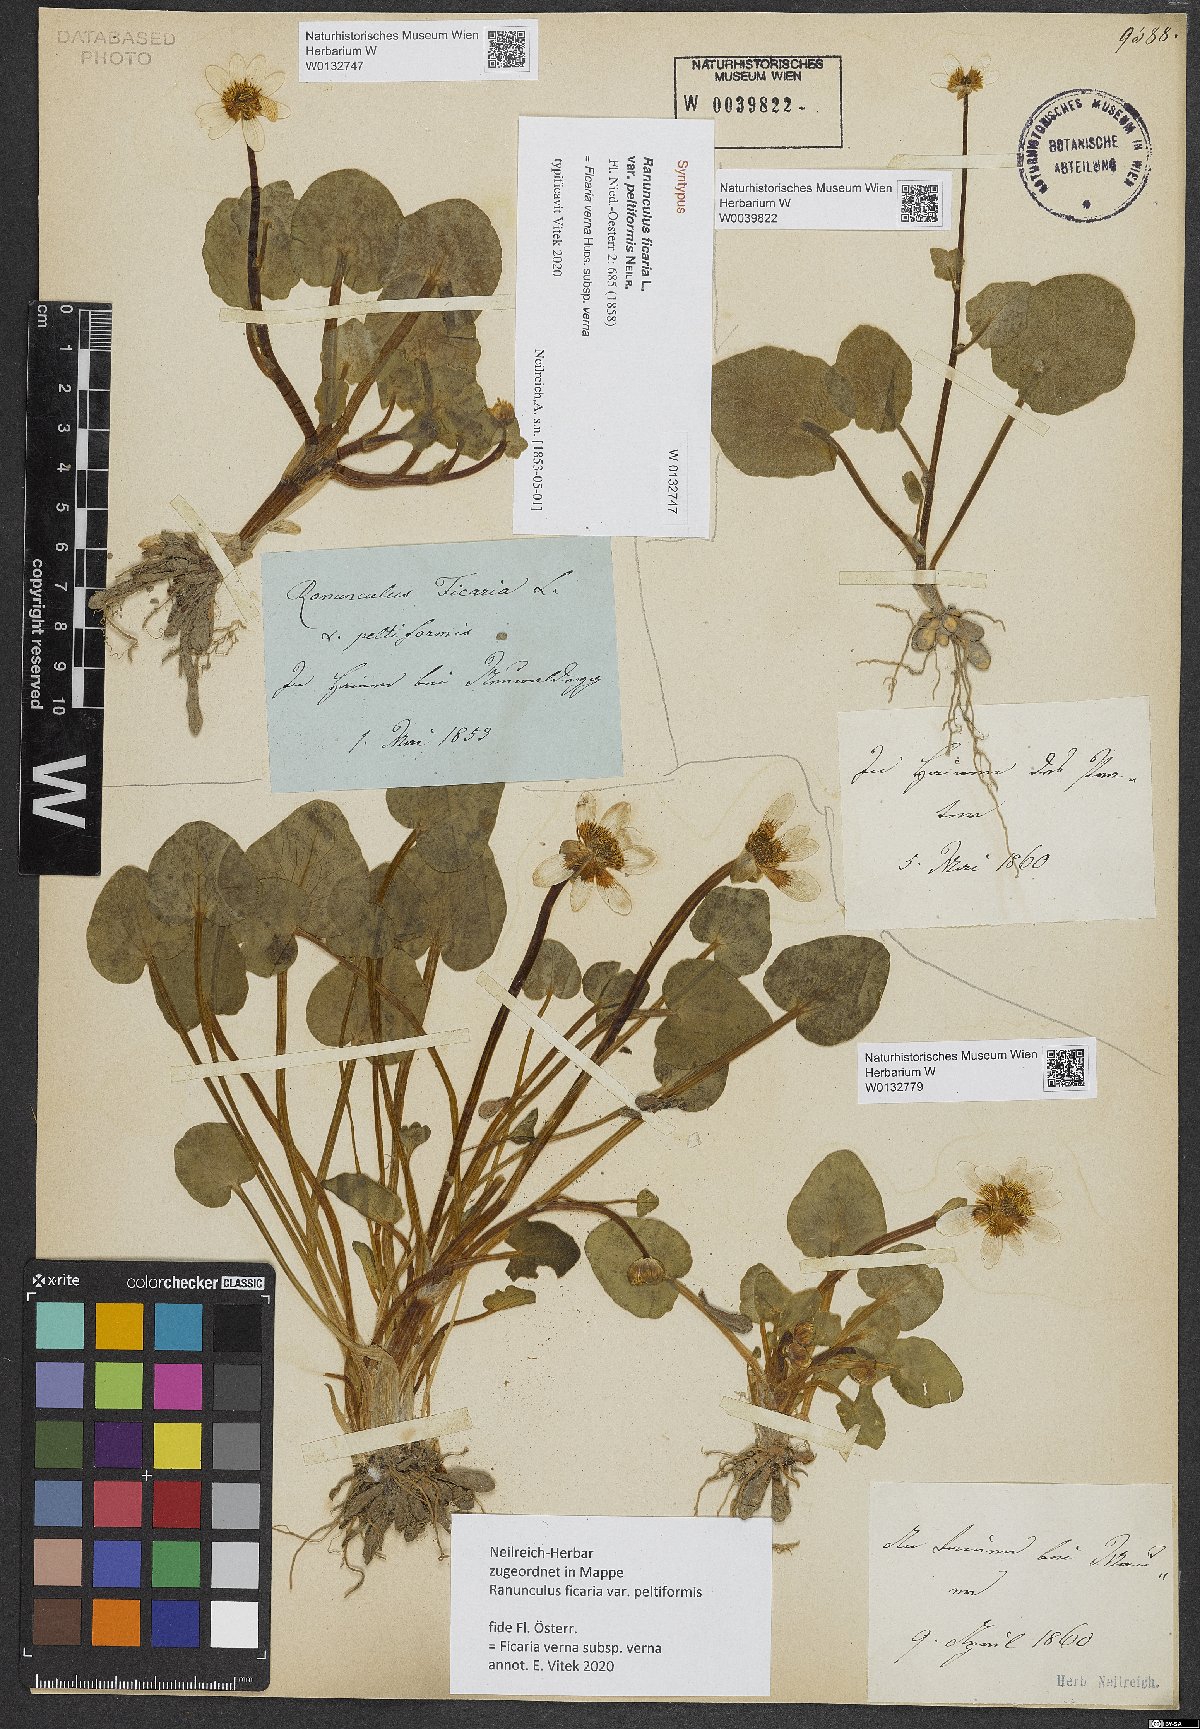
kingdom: Plantae
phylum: Tracheophyta
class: Magnoliopsida
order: Ranunculales
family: Ranunculaceae
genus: Ficaria
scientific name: Ficaria calthifolia
